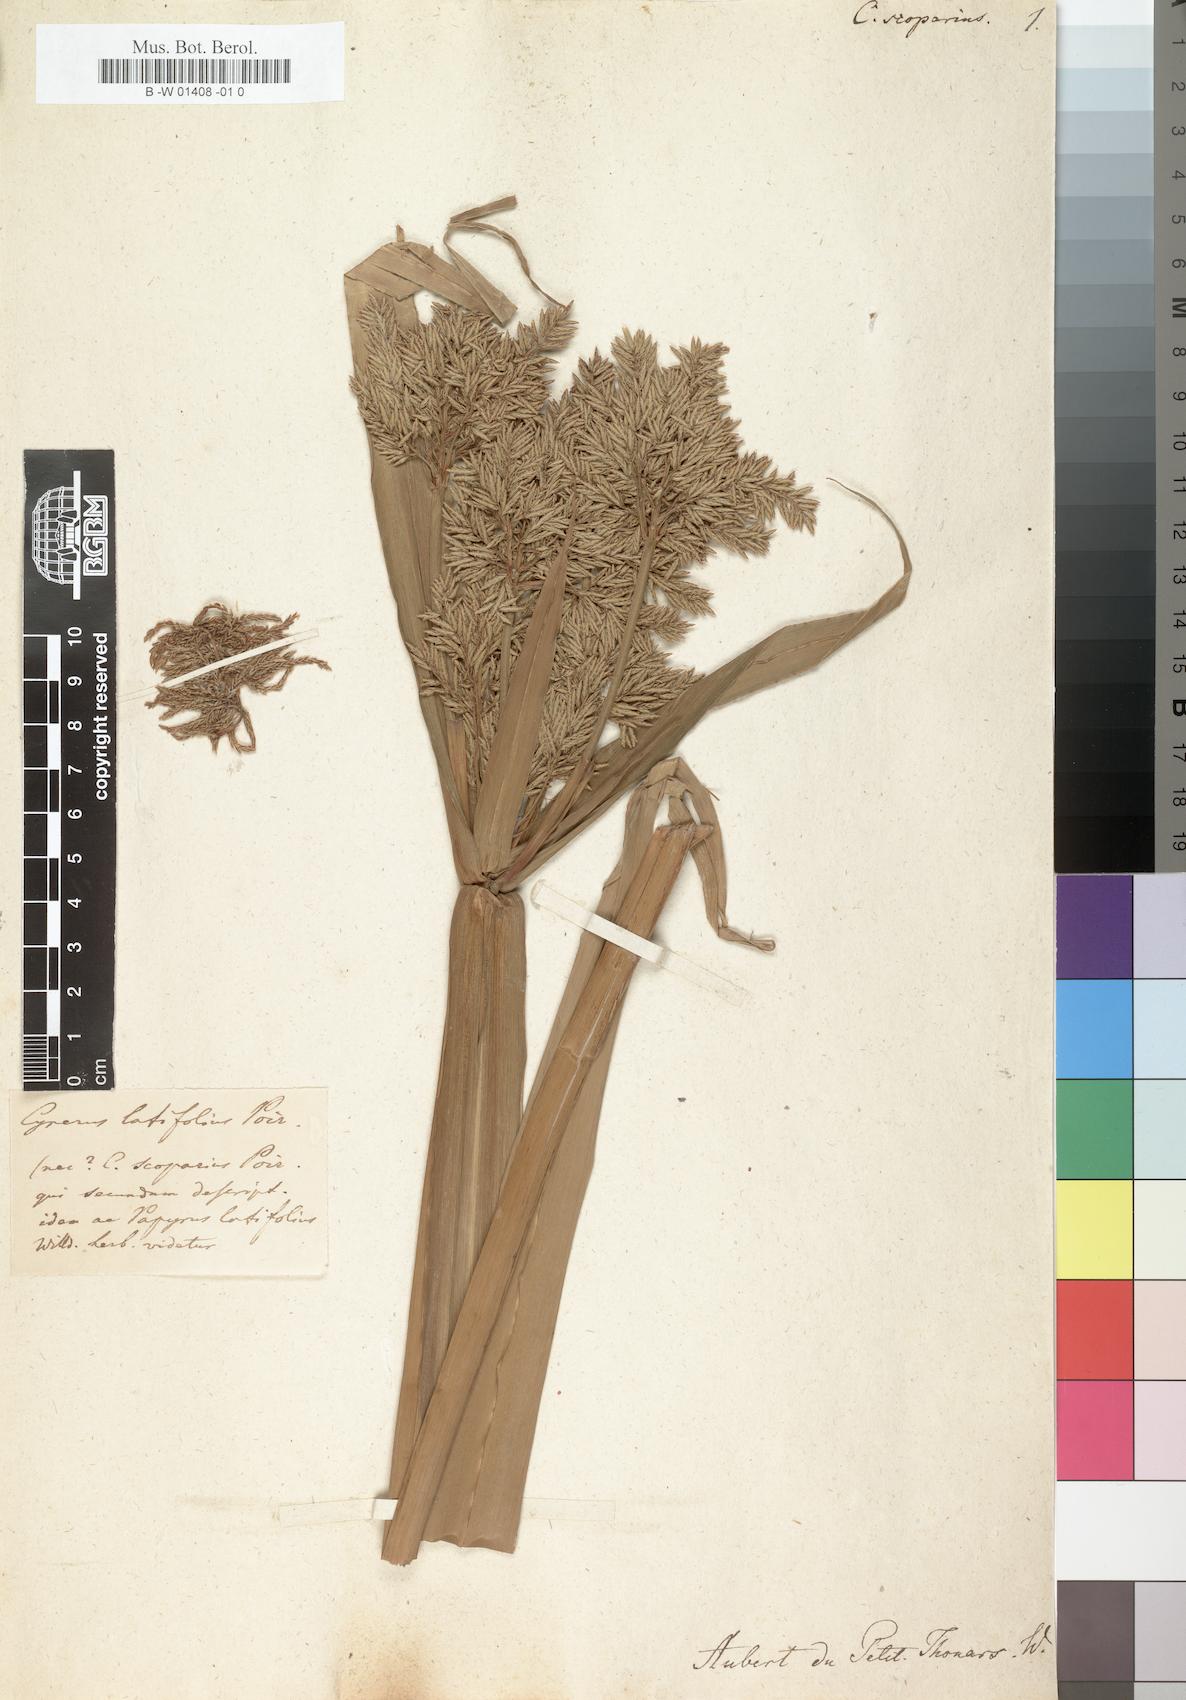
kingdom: Plantae
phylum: Tracheophyta
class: Liliopsida
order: Poales
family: Cyperaceae
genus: Cyperus
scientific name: Cyperus scoparius
